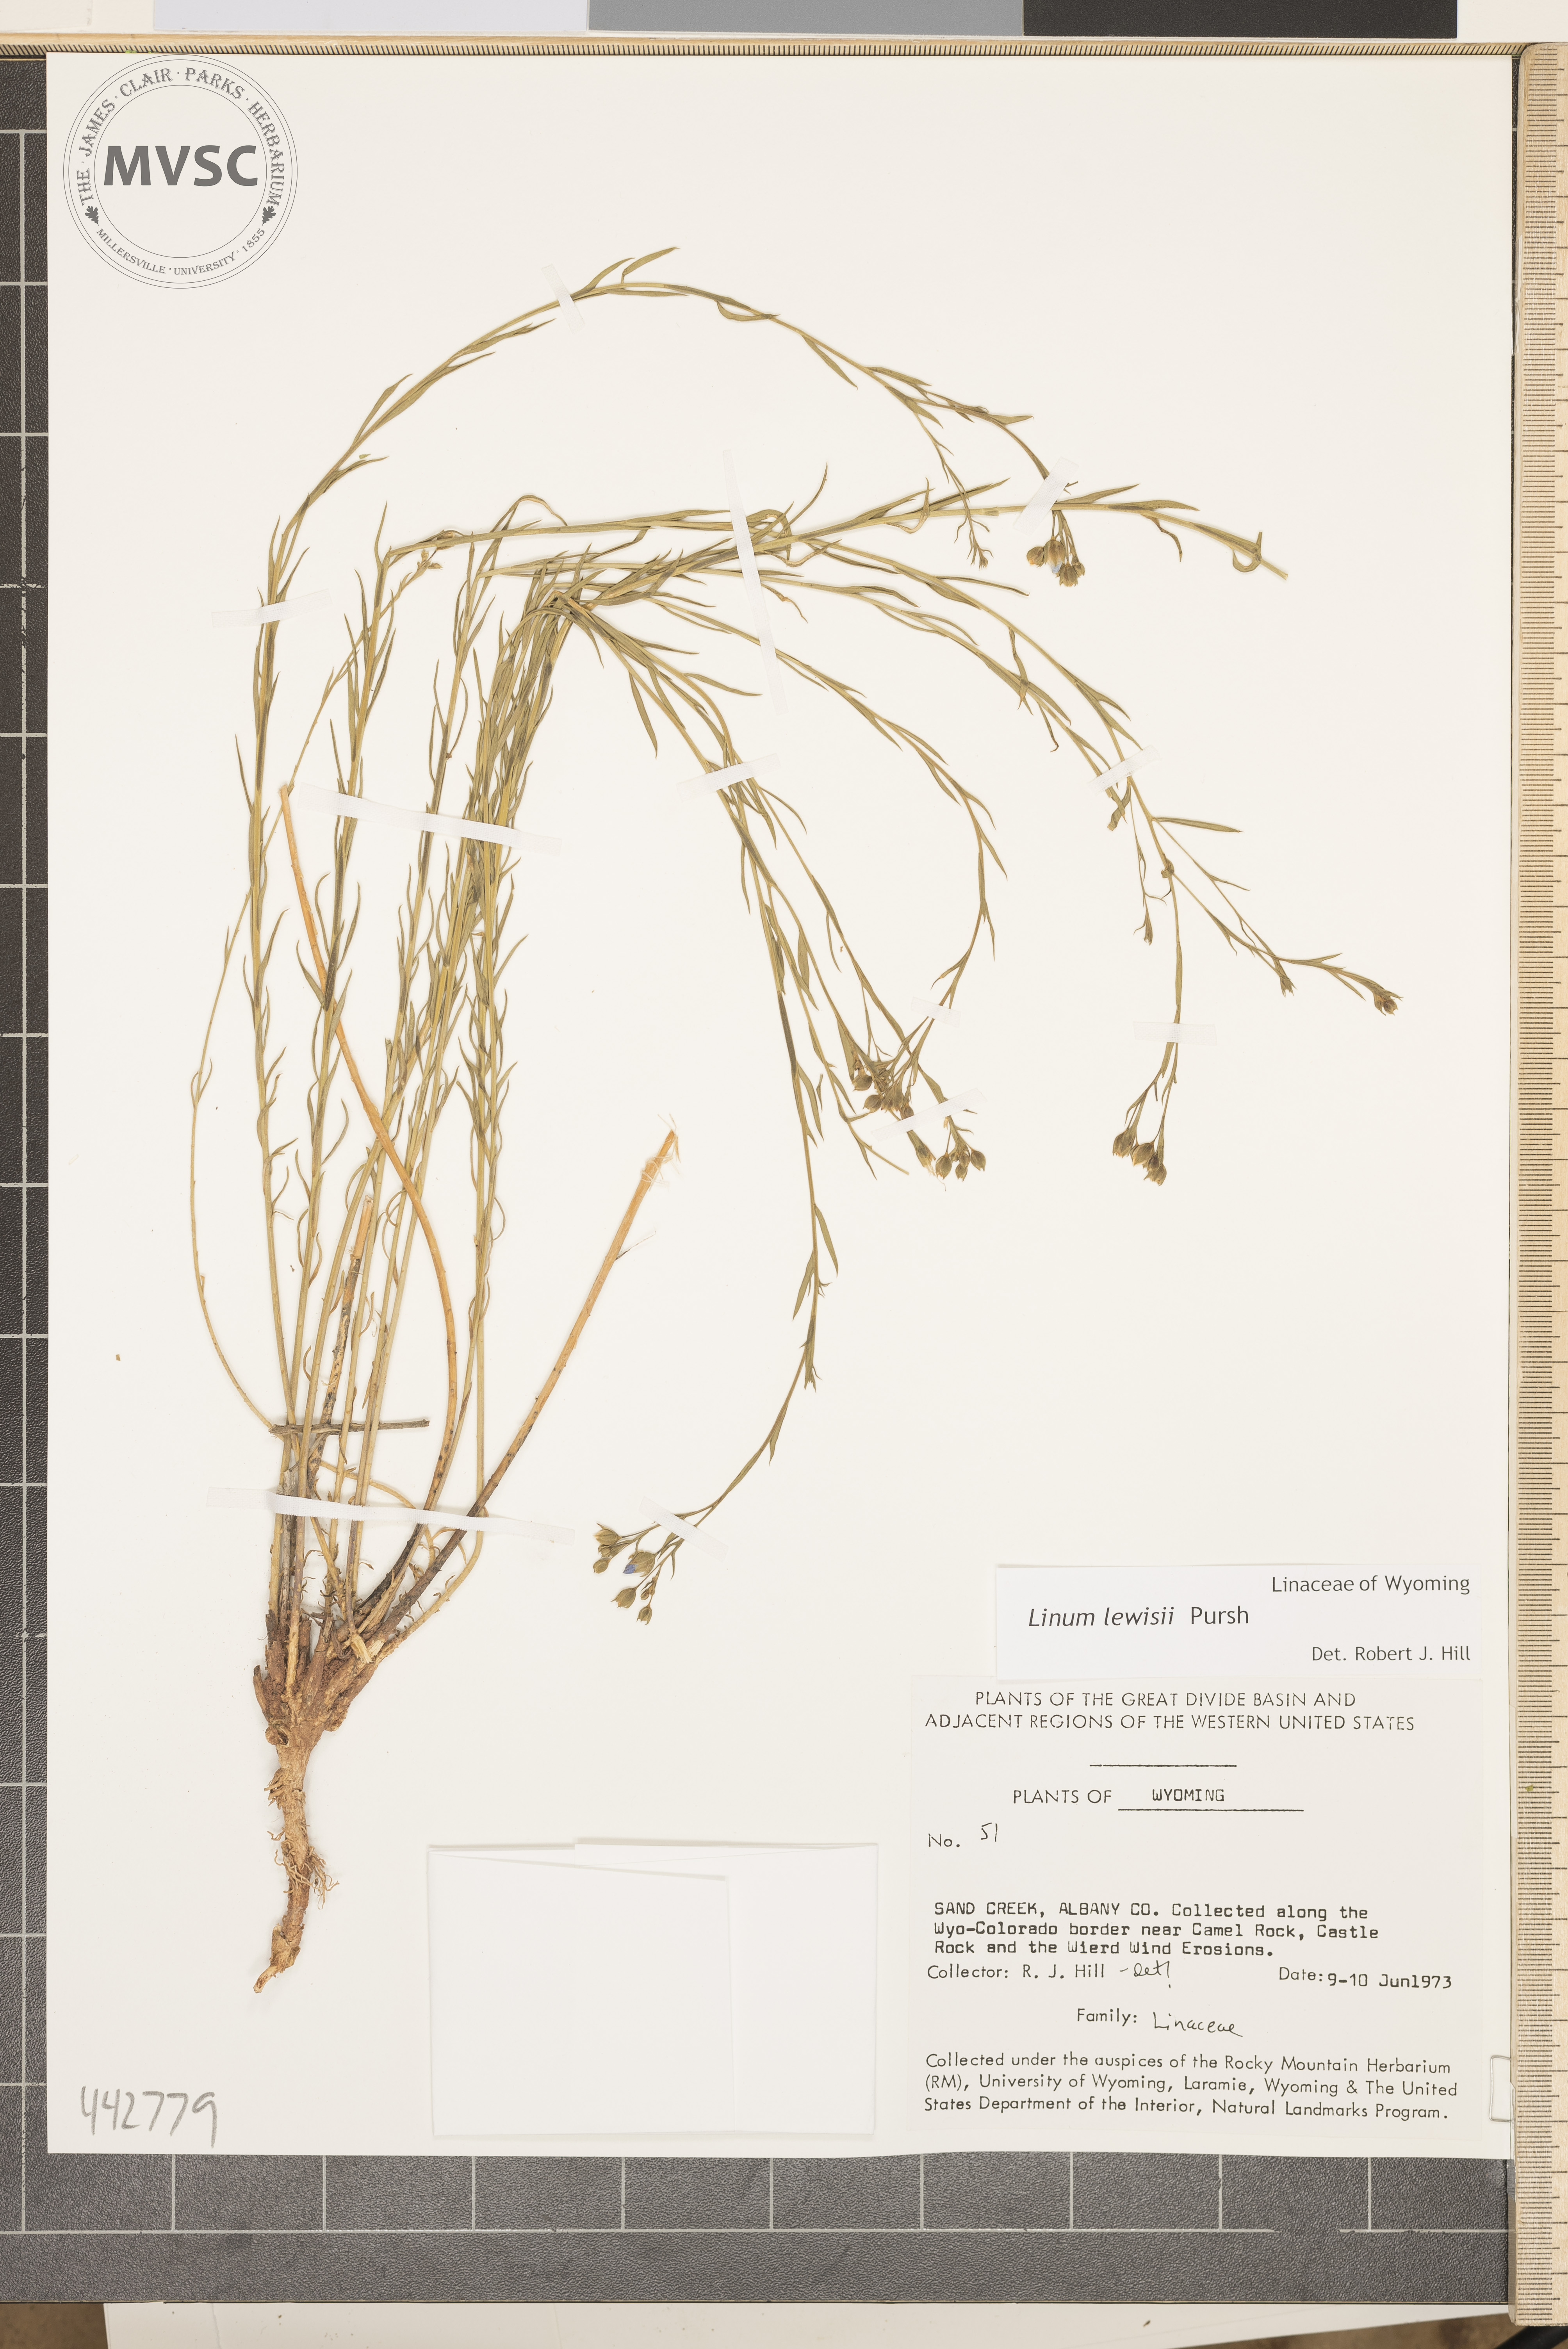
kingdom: Plantae
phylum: Tracheophyta
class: Magnoliopsida
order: Malpighiales
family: Linaceae
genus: Linum
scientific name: Linum lewisii
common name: Prairie flax
